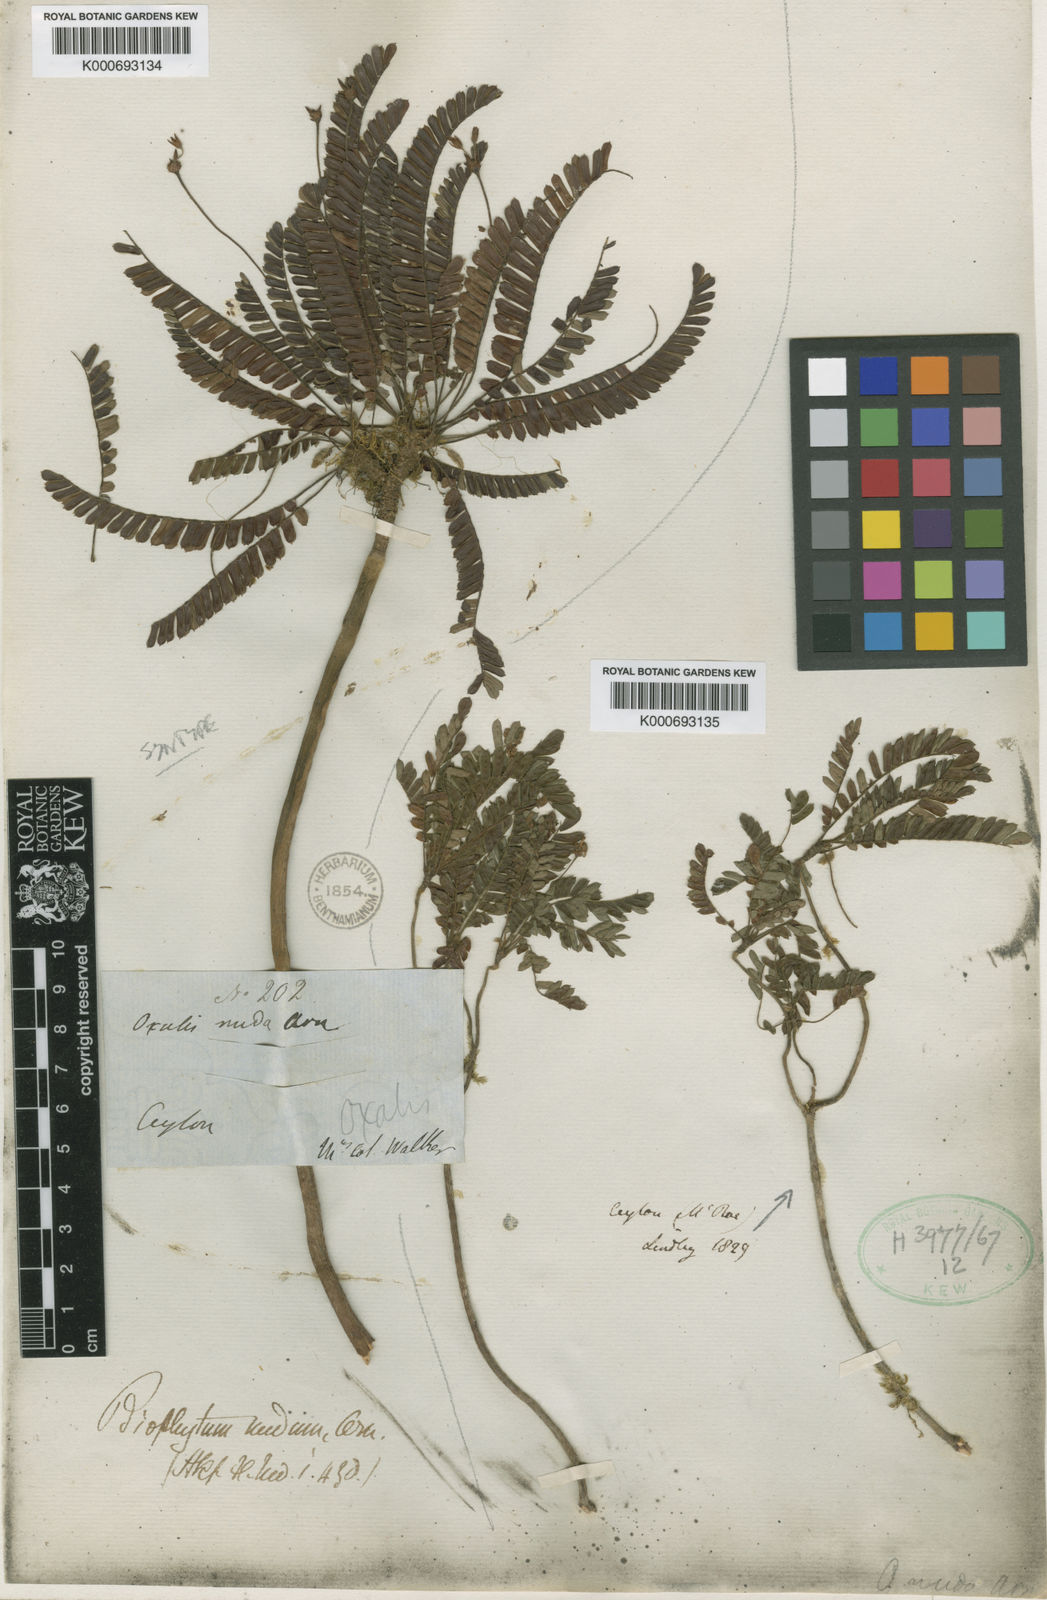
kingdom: Plantae
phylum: Tracheophyta
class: Magnoliopsida
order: Oxalidales
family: Oxalidaceae
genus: Biophytum
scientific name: Biophytum
